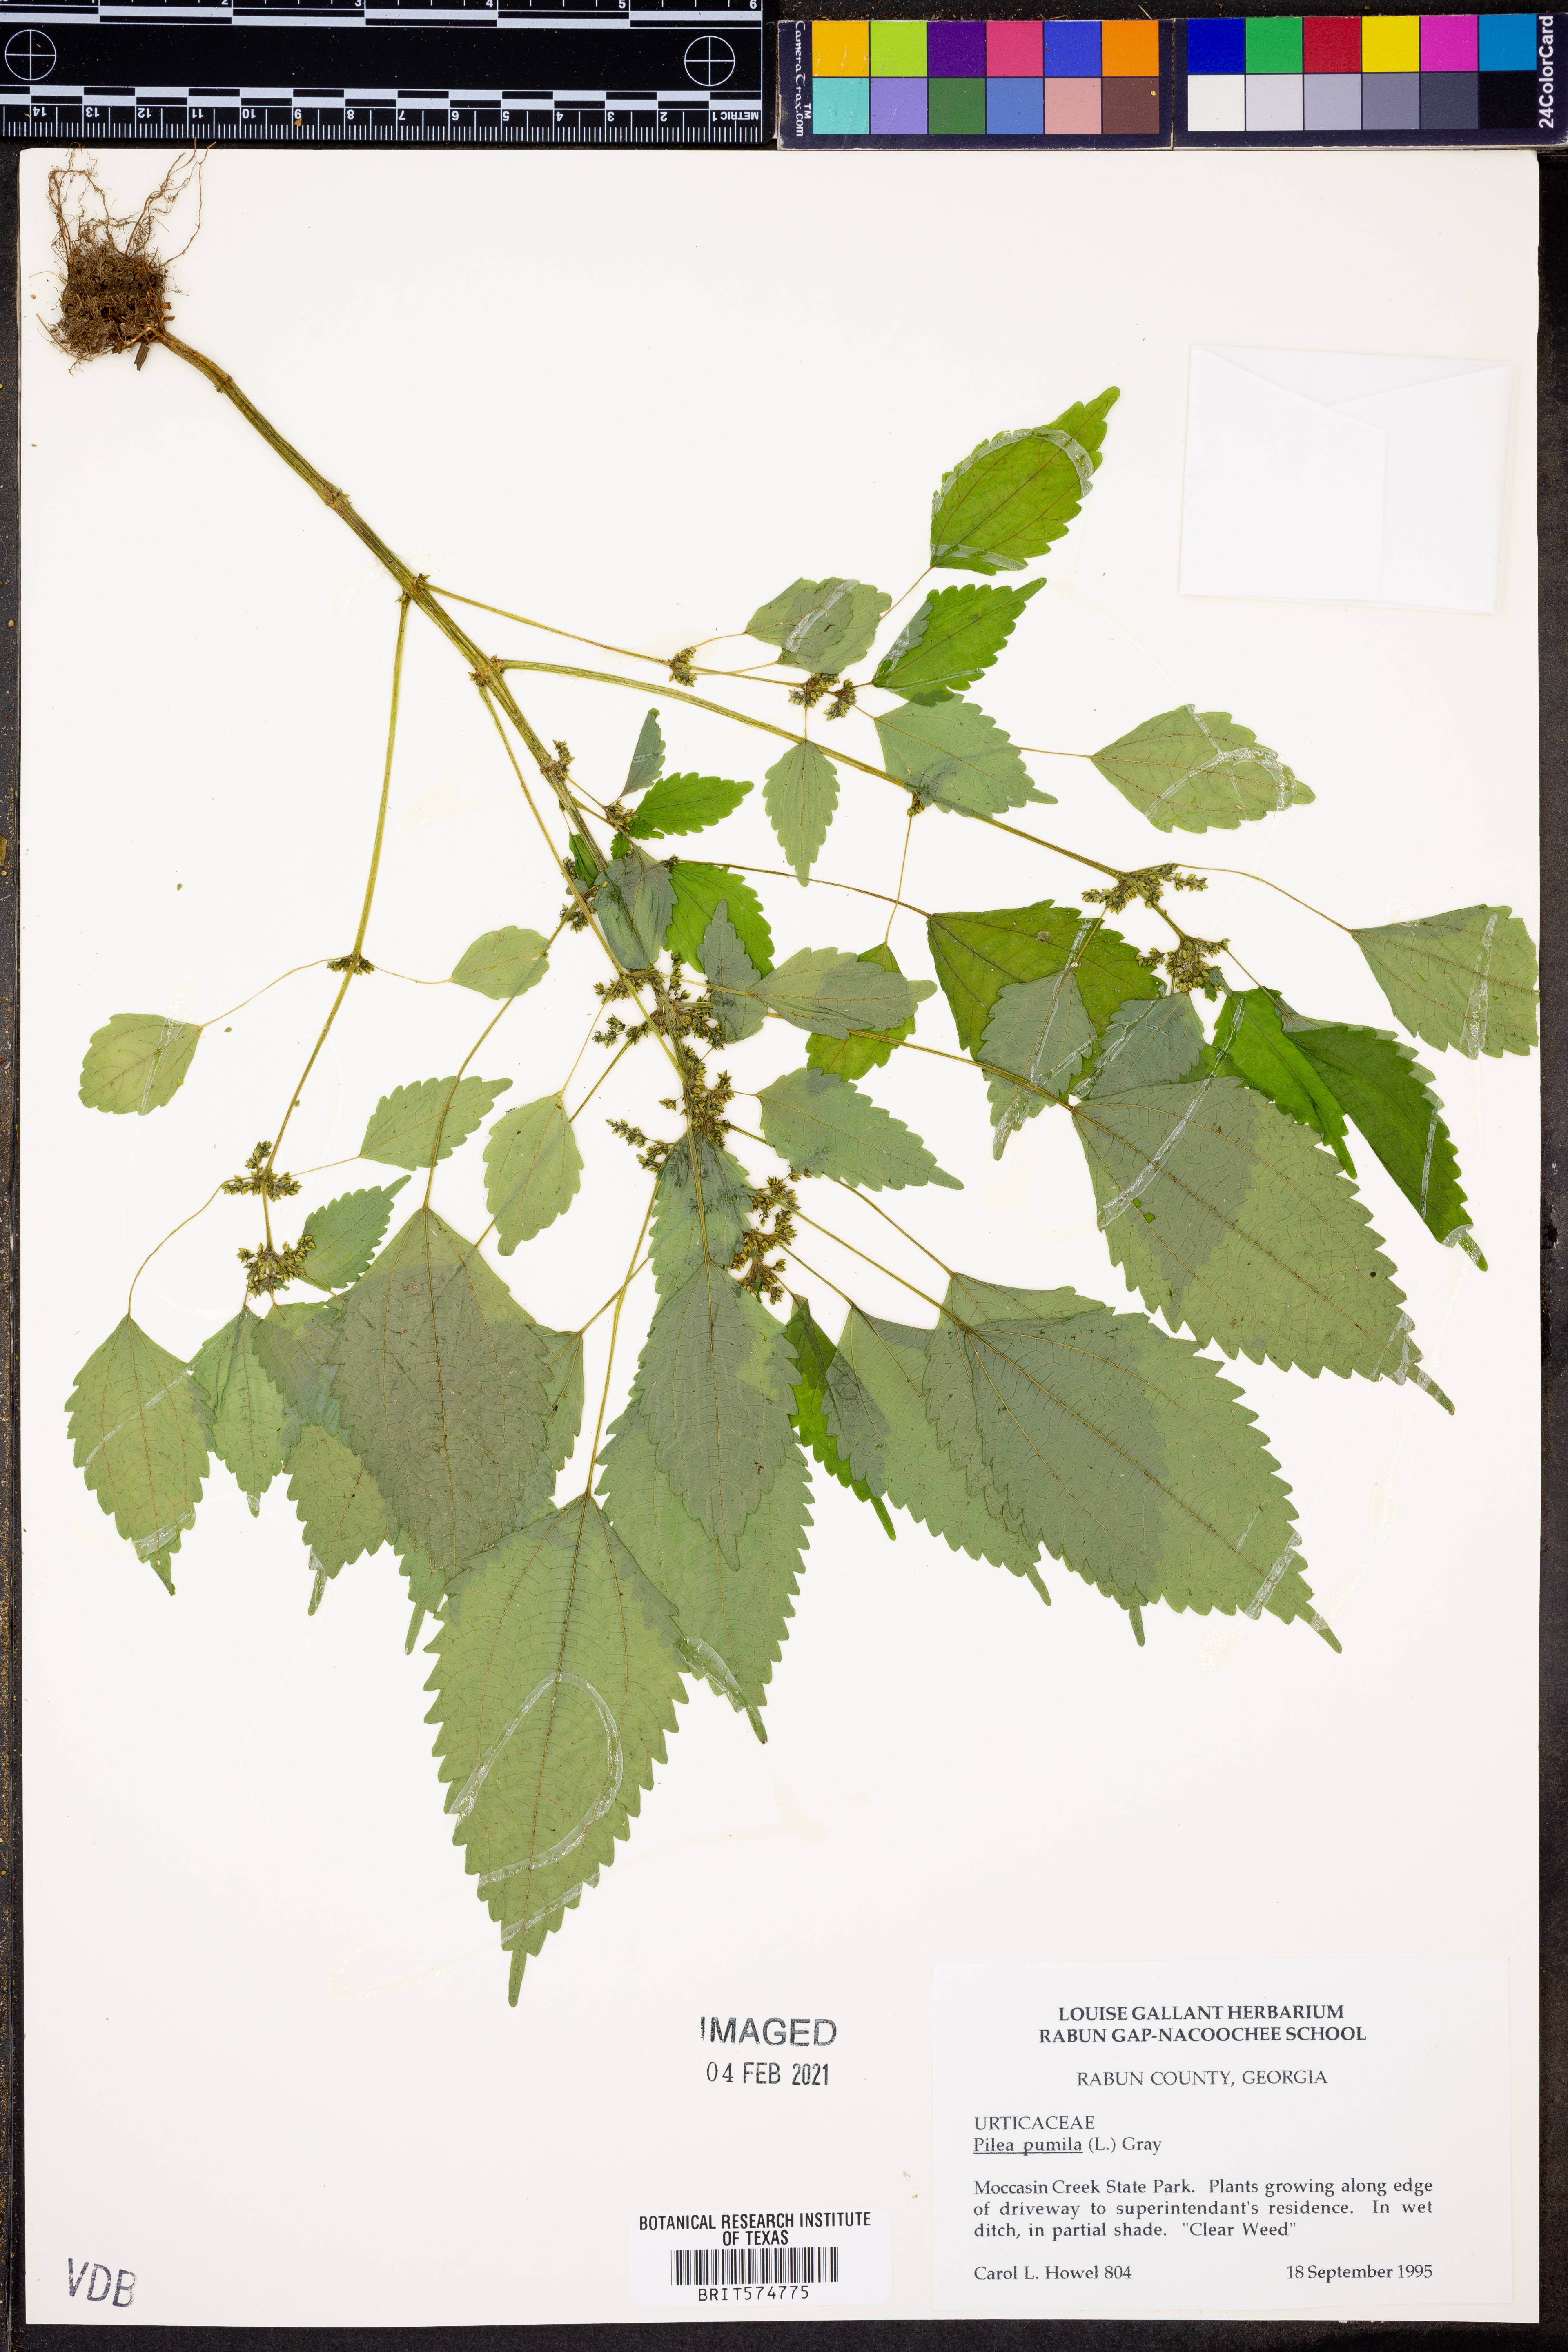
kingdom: Plantae
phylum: Tracheophyta
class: Magnoliopsida
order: Rosales
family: Urticaceae
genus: Pilea
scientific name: Pilea pumila
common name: Clearweed
